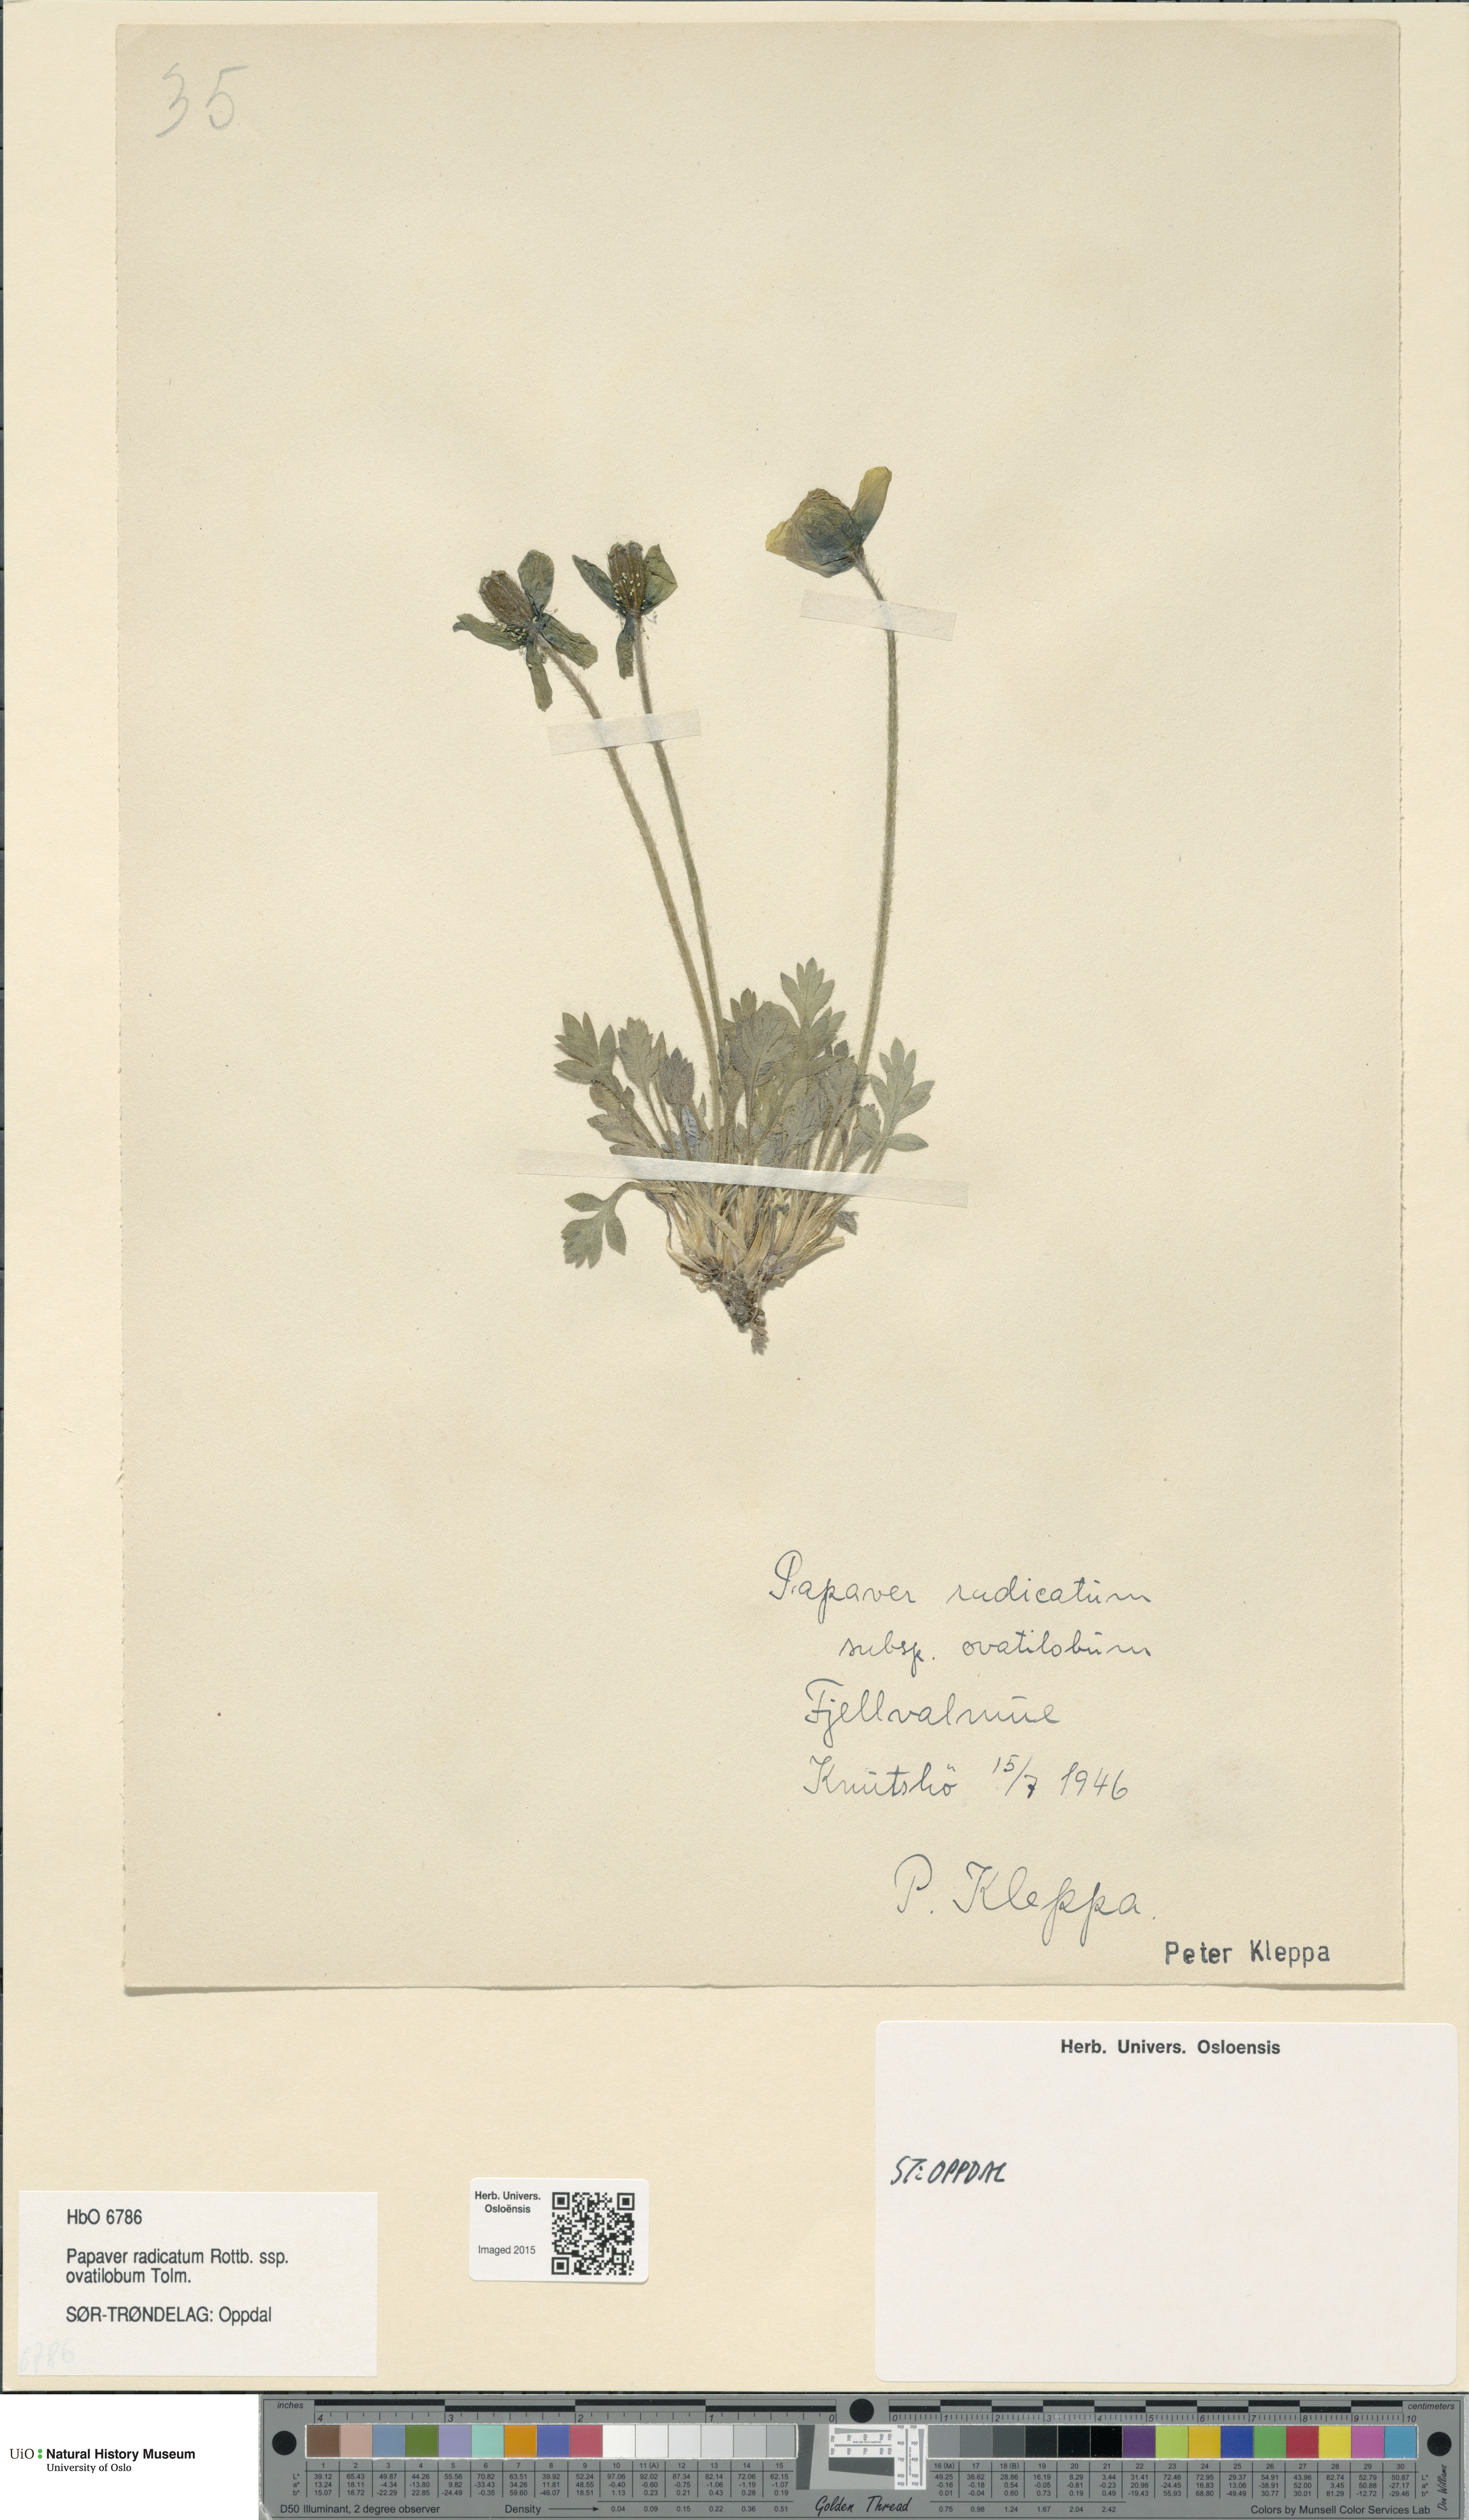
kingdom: Plantae
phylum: Tracheophyta
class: Magnoliopsida
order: Ranunculales
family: Papaveraceae
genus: Papaver
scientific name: Papaver radicatum
